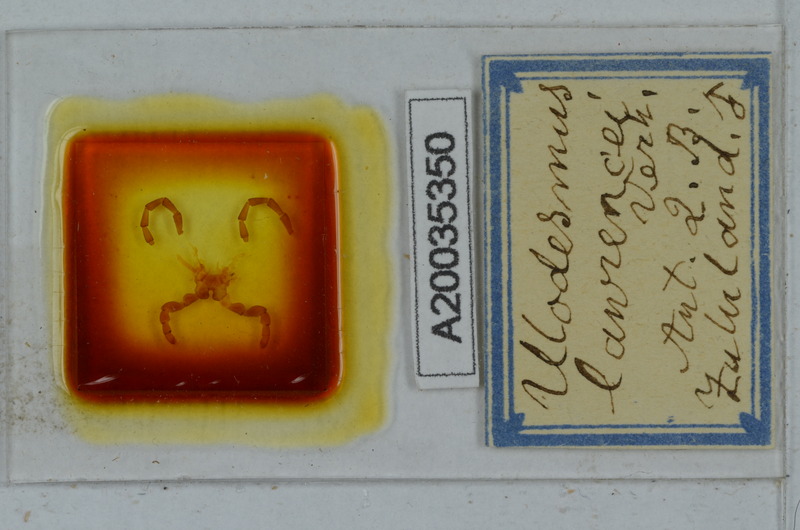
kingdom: Animalia
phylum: Arthropoda
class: Diplopoda
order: Polydesmida
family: Gomphodesmidae
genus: Ulodesmus
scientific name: Ulodesmus lawrencei
